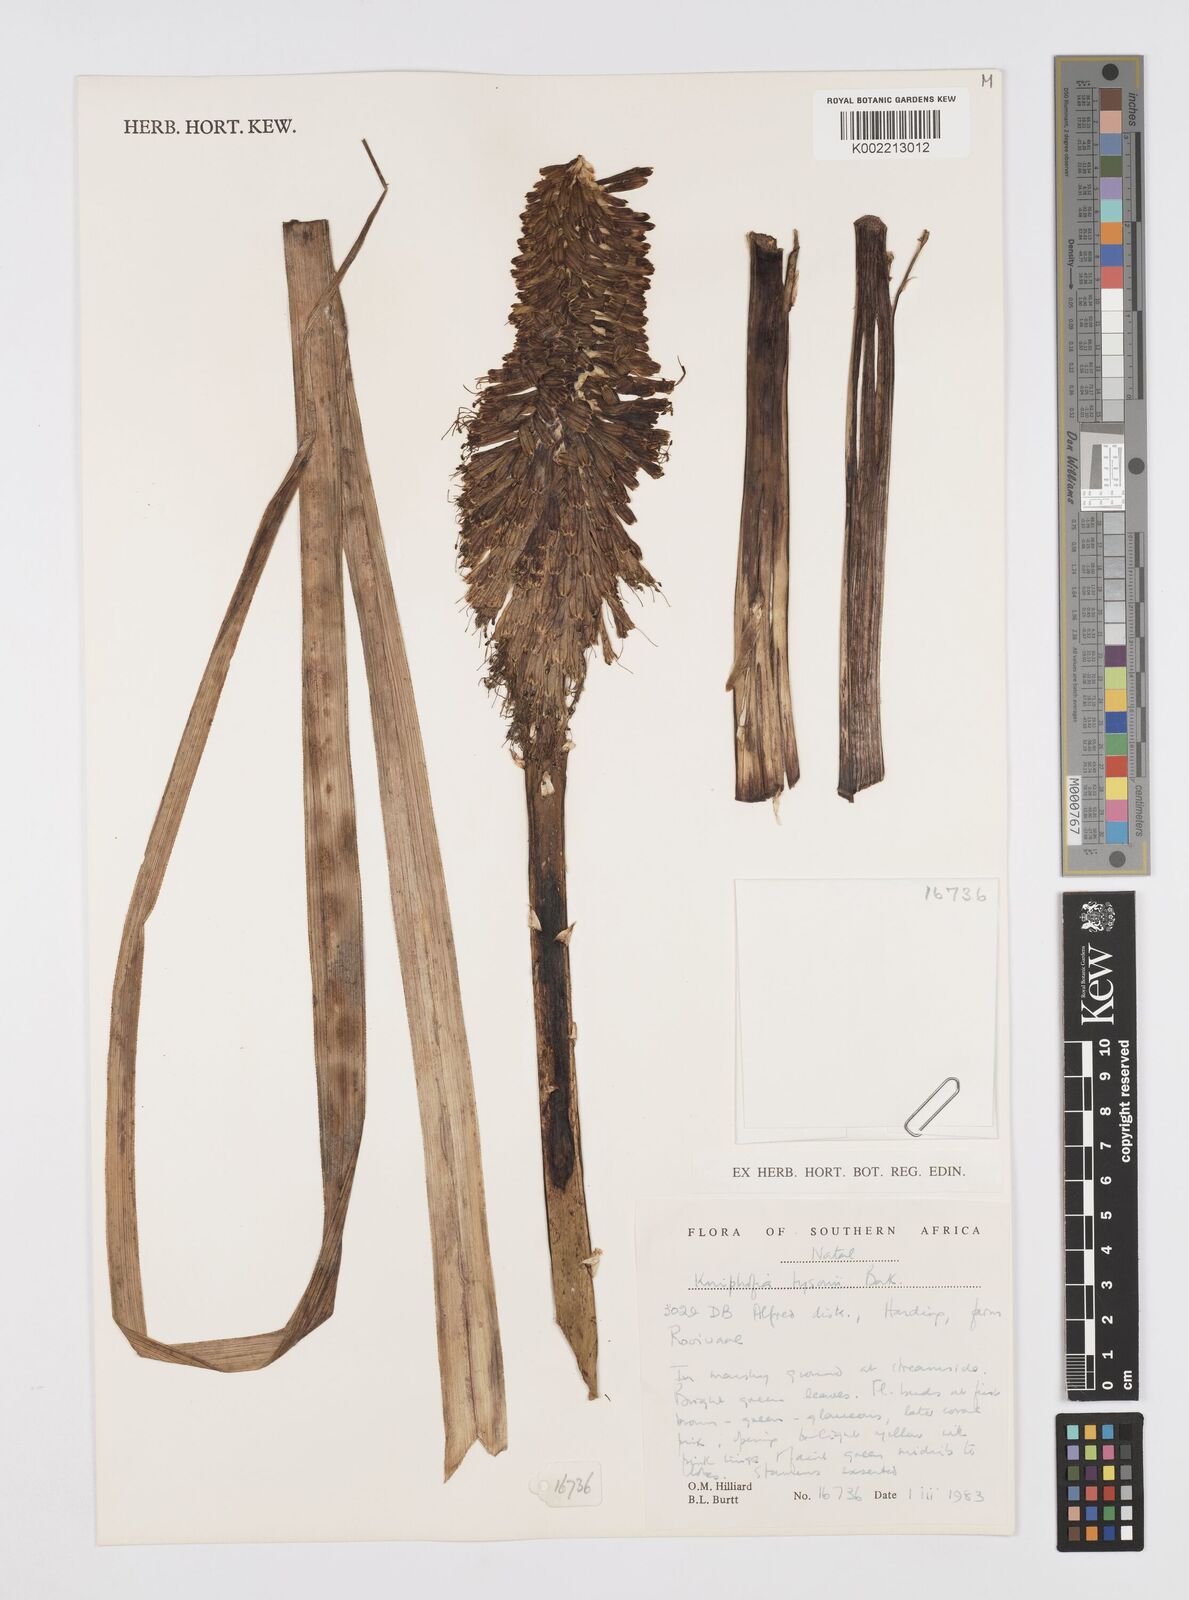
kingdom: Plantae
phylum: Tracheophyta
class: Liliopsida
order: Asparagales
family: Asphodelaceae
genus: Kniphofia
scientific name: Kniphofia tysonii
